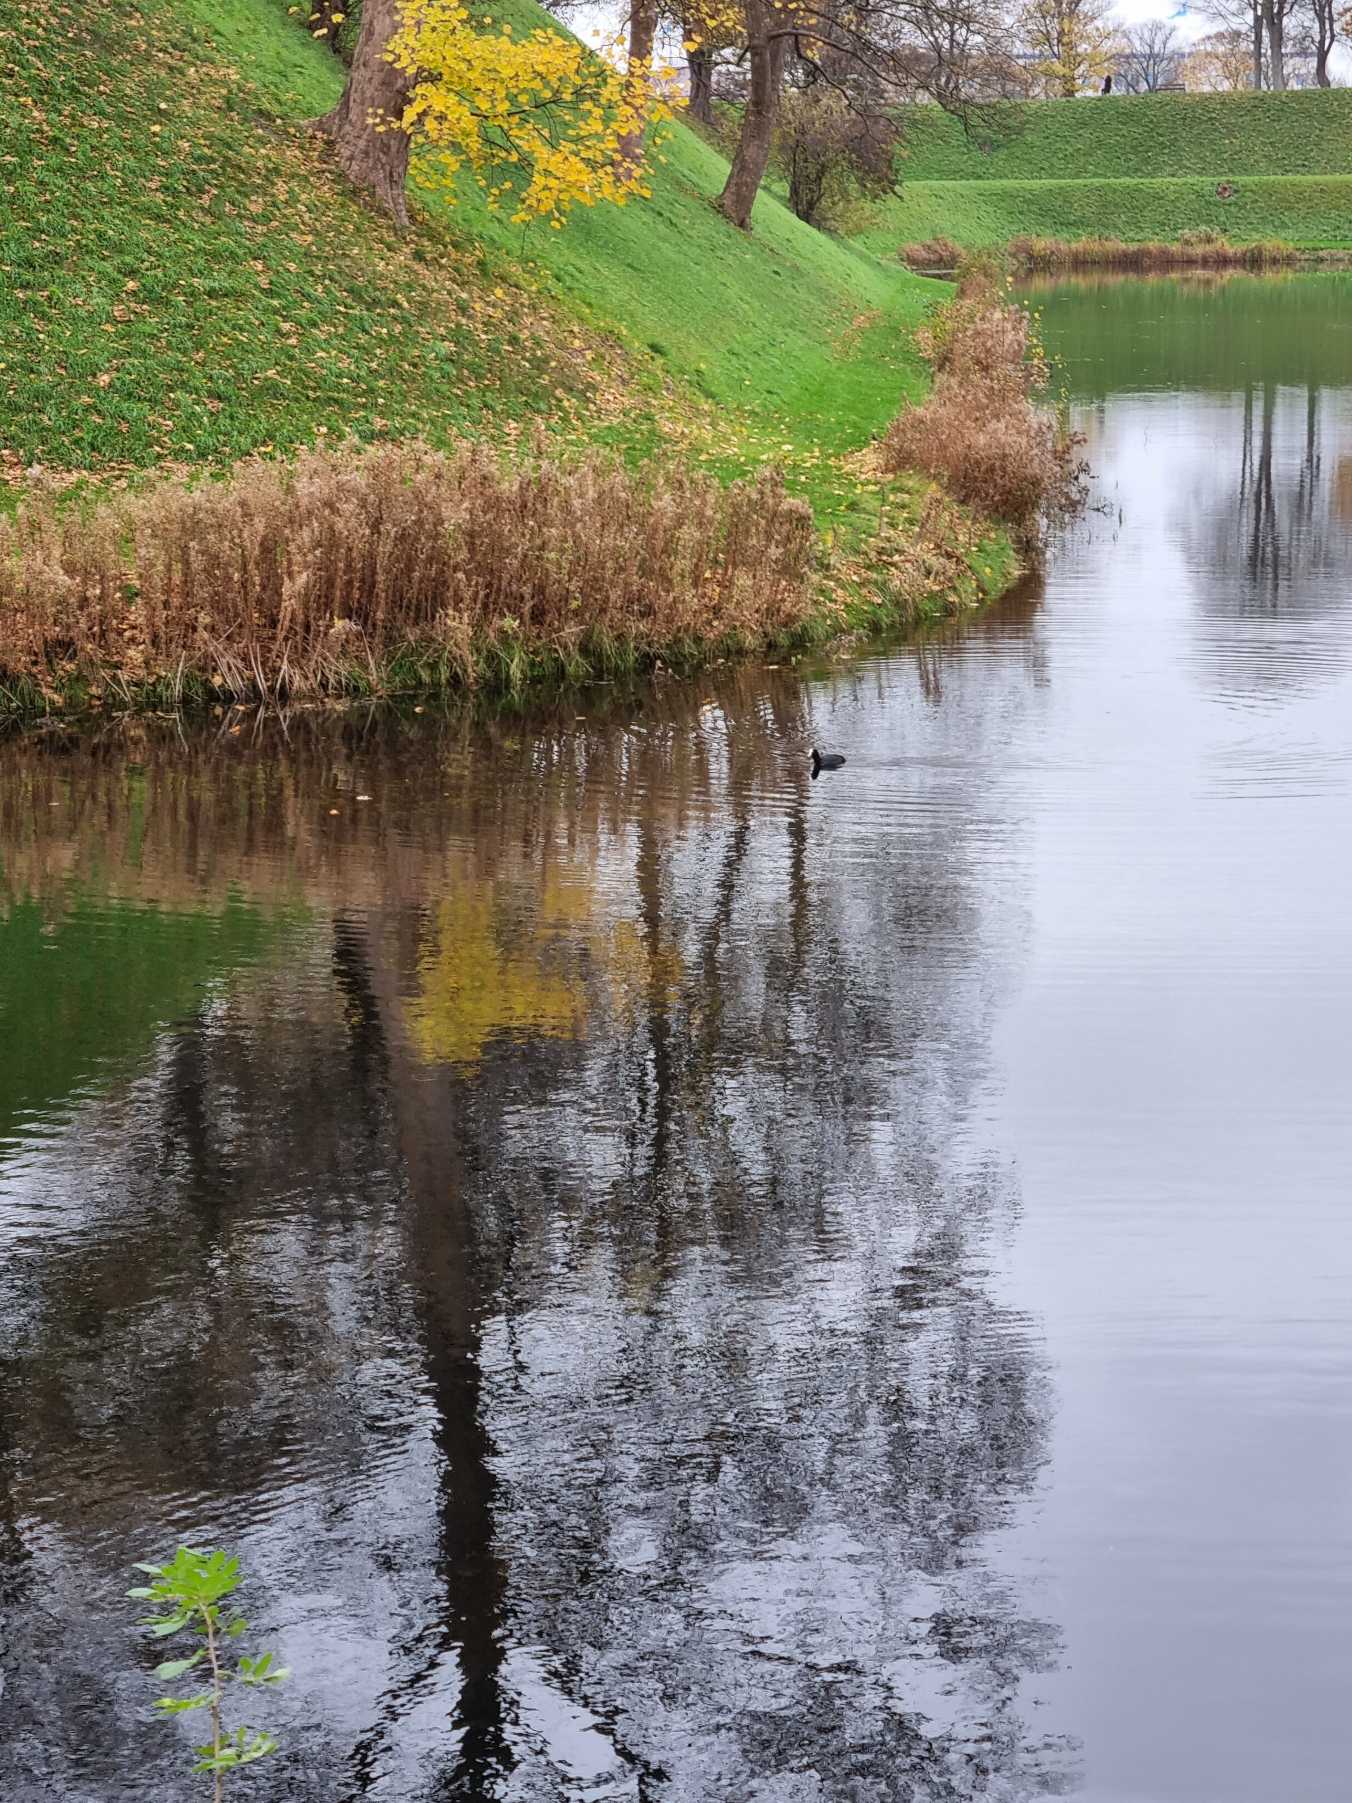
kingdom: Animalia
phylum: Chordata
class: Aves
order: Gruiformes
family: Rallidae
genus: Fulica
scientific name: Fulica atra
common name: Blishøne
